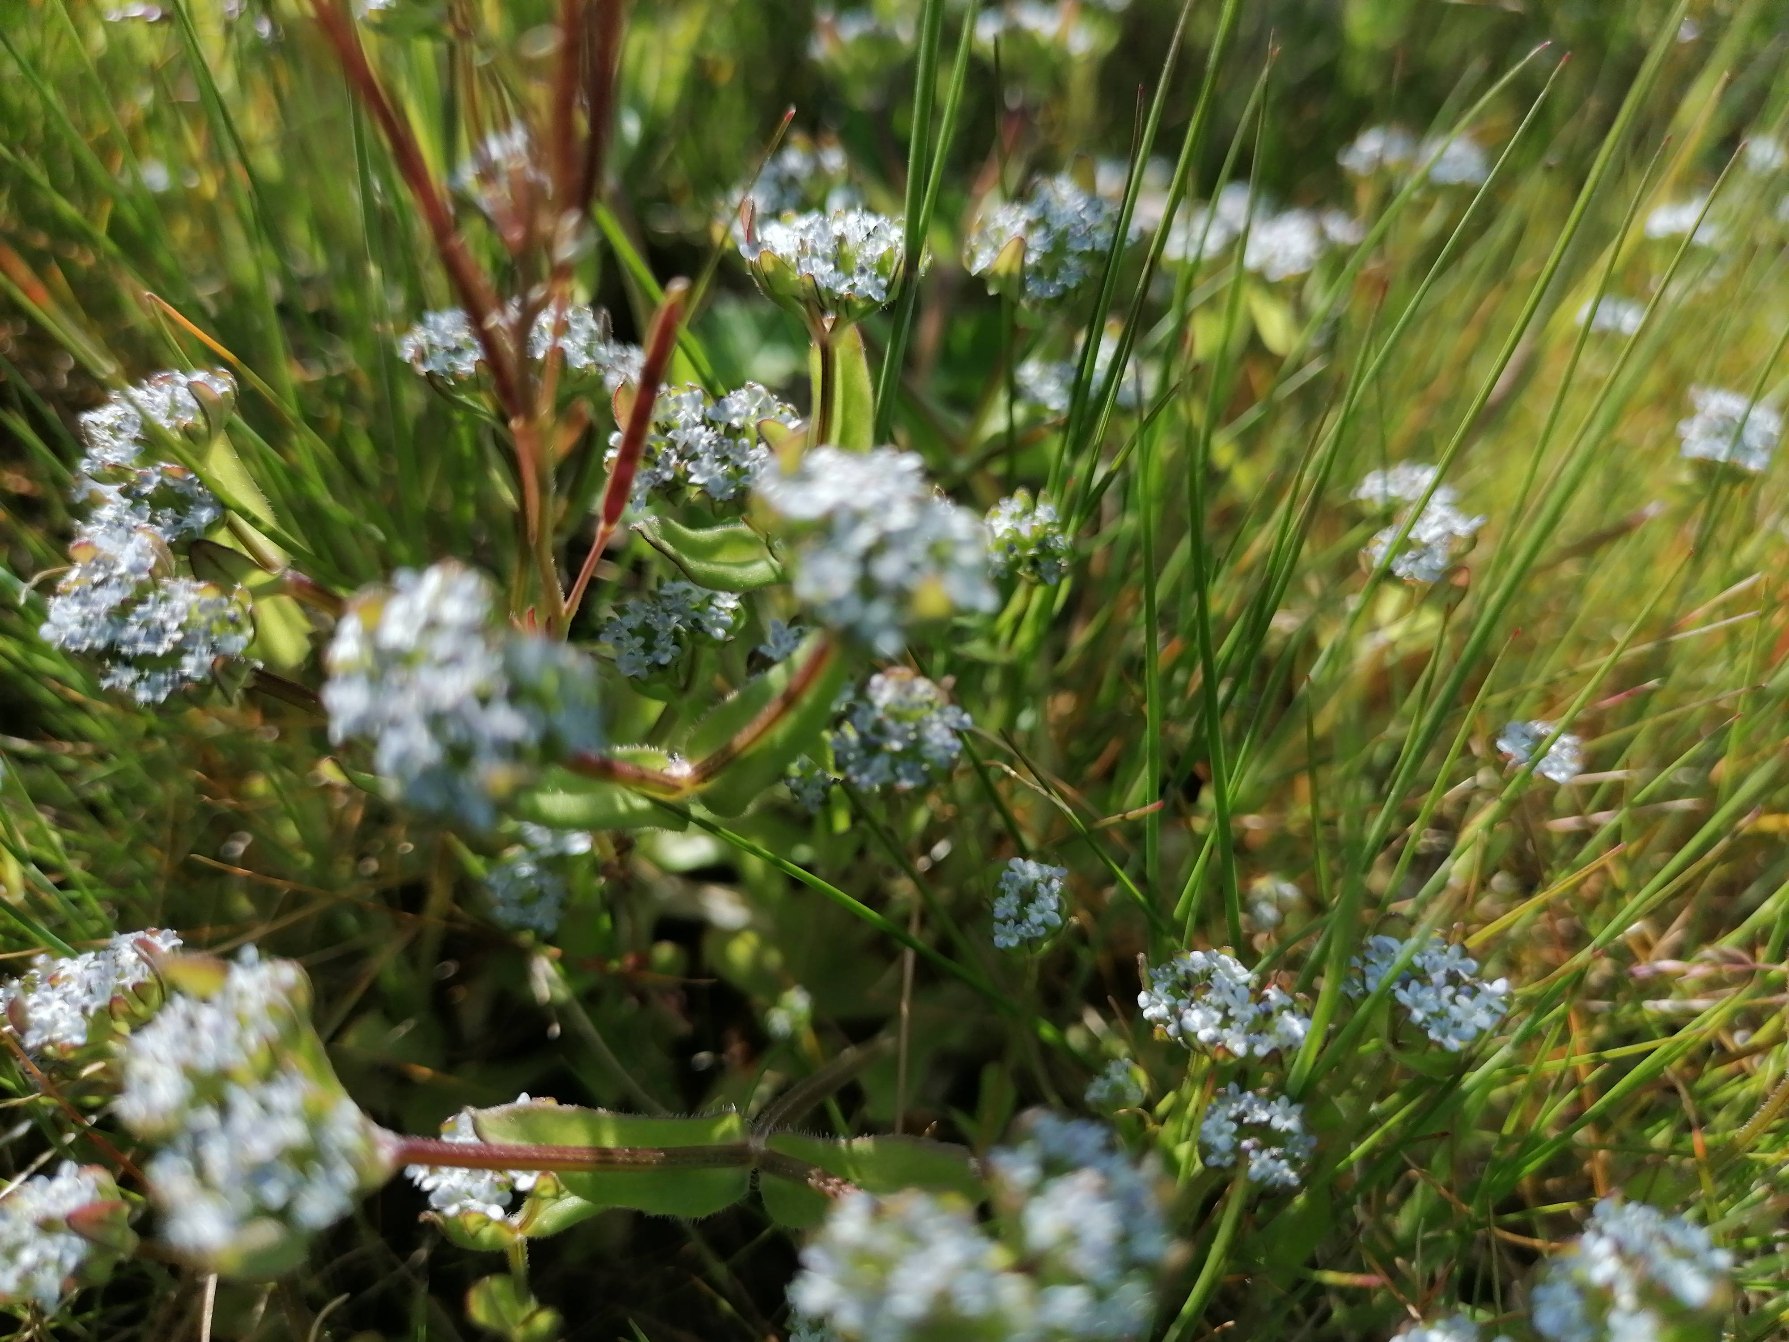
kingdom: Plantae
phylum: Tracheophyta
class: Magnoliopsida
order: Dipsacales
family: Caprifoliaceae
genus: Valerianella
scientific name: Valerianella locusta
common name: Tandfri vårsalat
